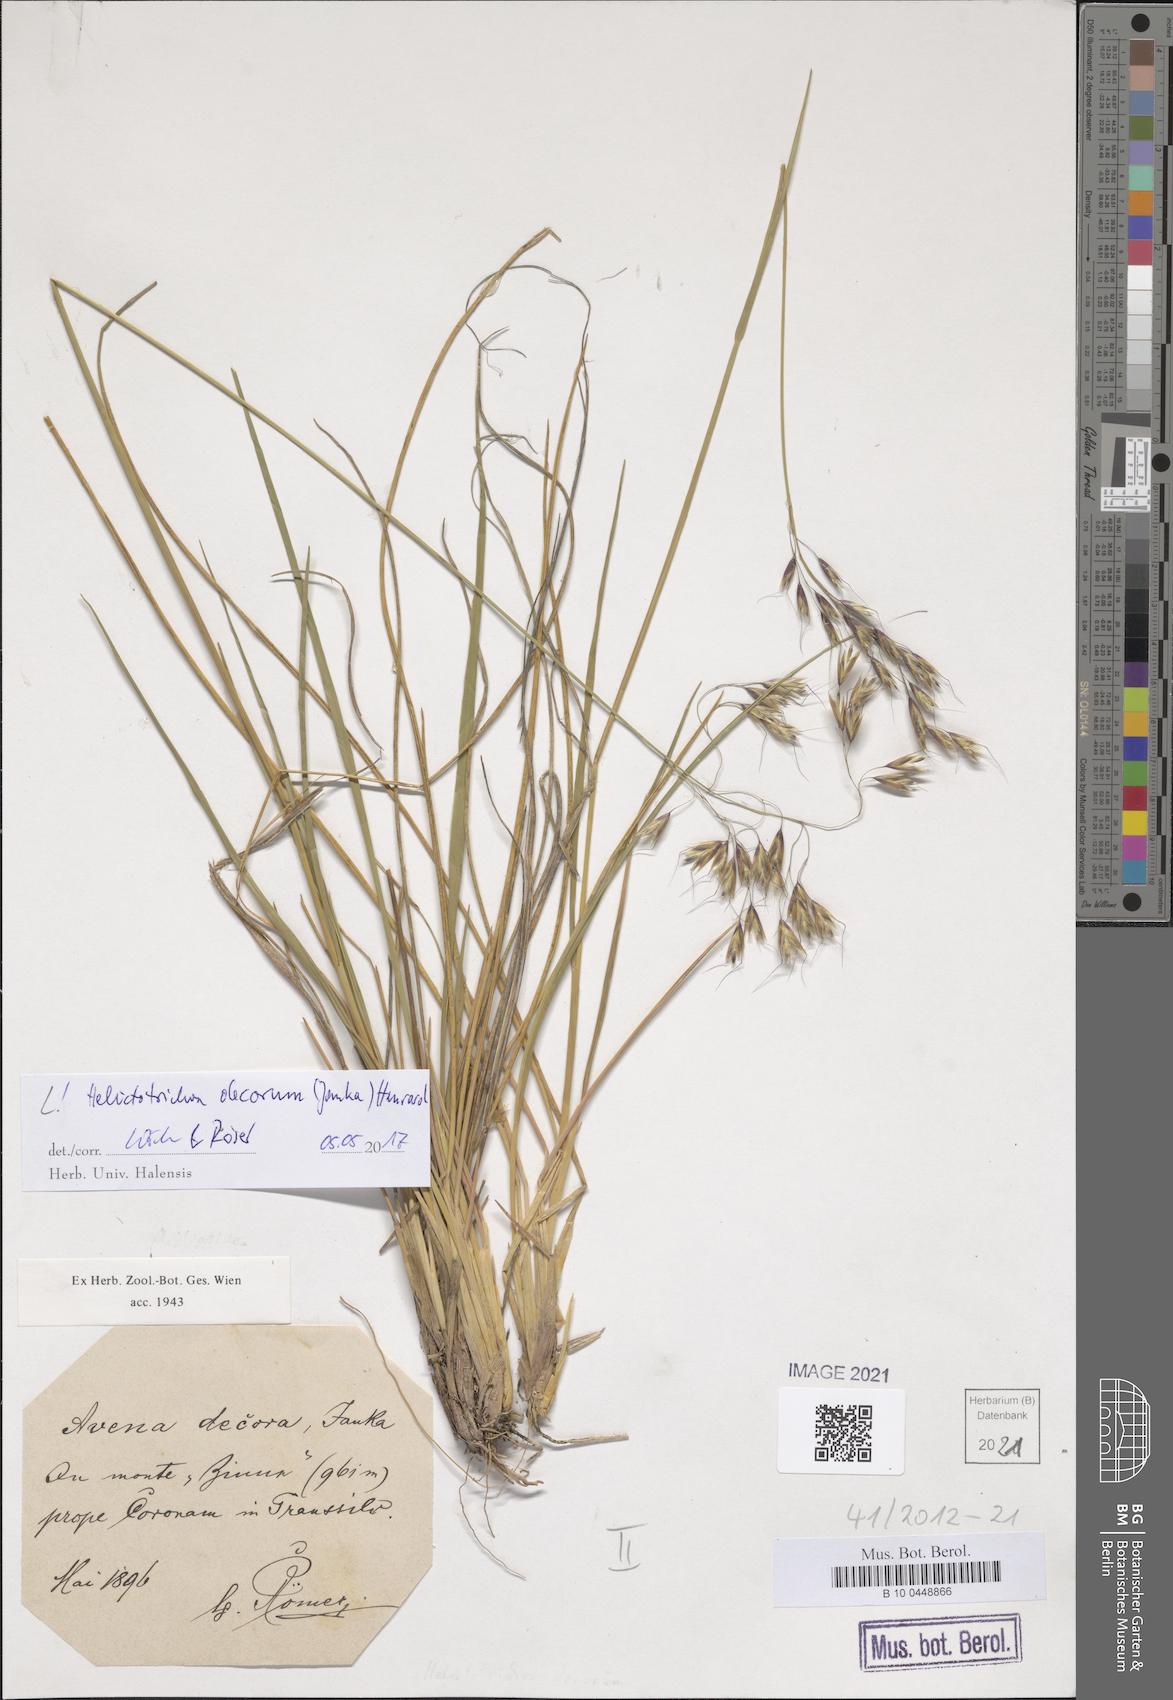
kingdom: Plantae
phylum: Tracheophyta
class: Liliopsida
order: Poales
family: Poaceae
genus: Helictotrichon
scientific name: Helictotrichon decorum
